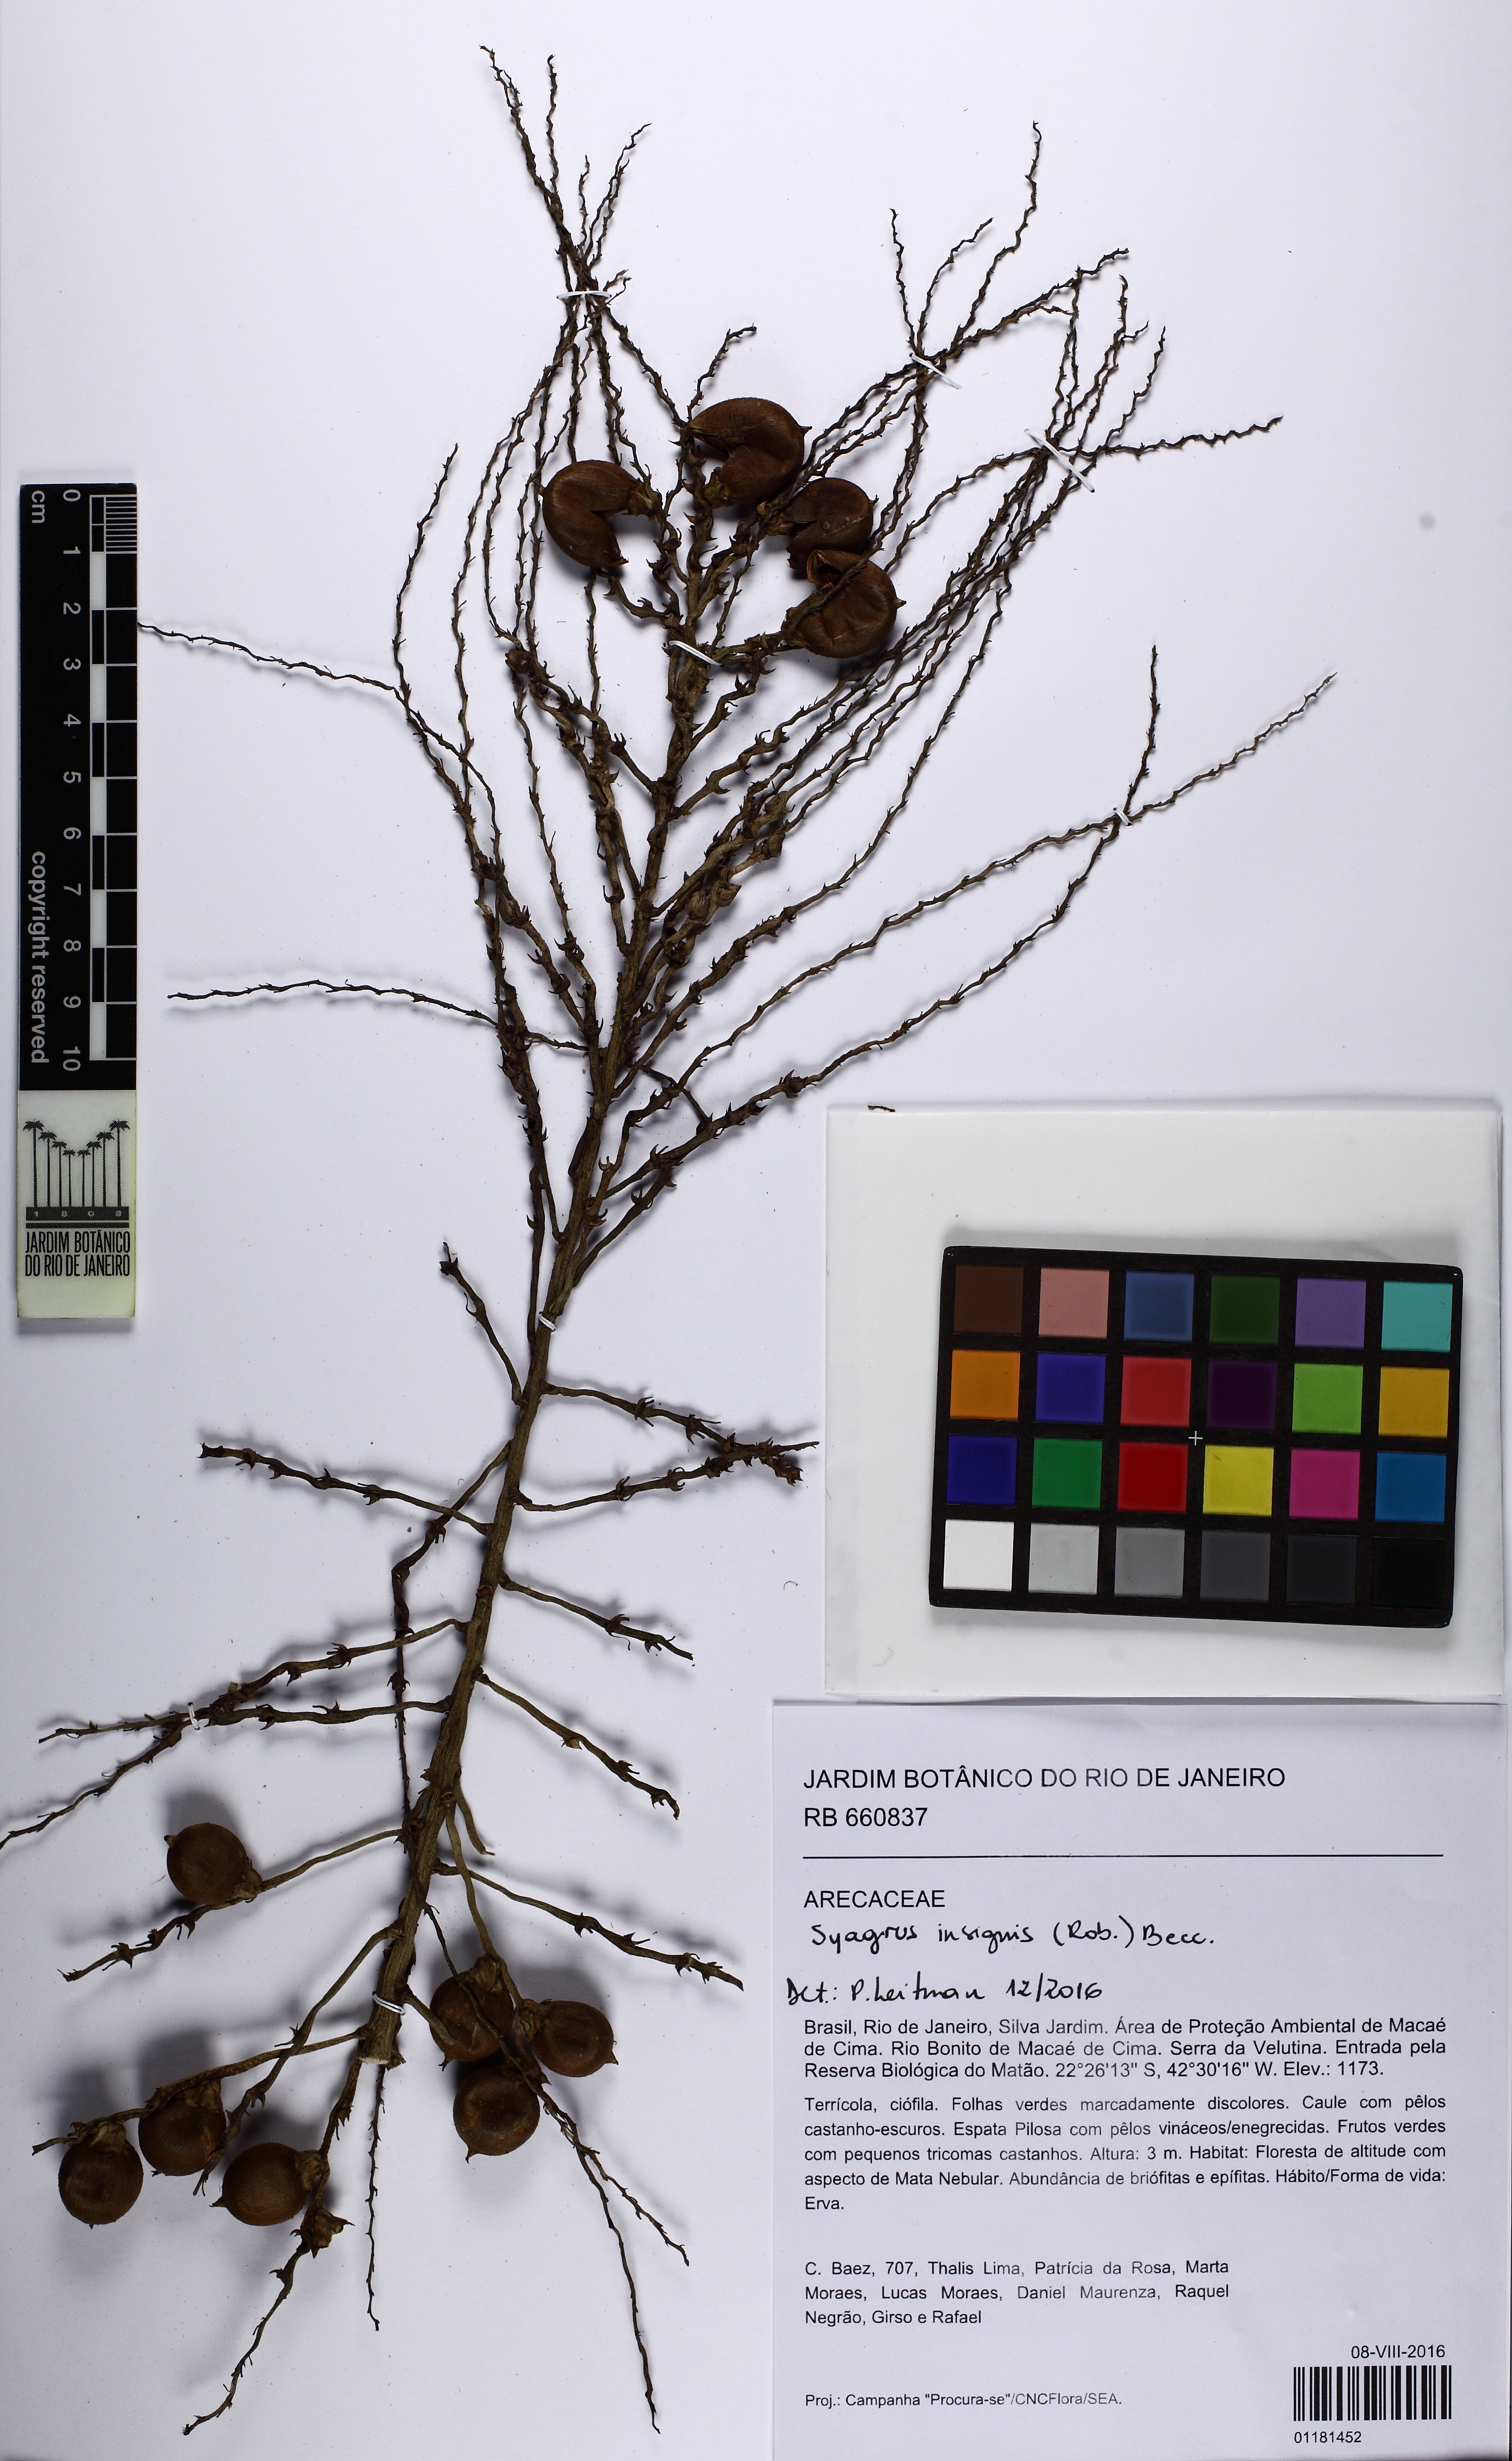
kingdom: Plantae
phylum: Tracheophyta
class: Liliopsida
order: Arecales
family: Arecaceae
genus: Syagrus
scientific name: Syagrus insignis
